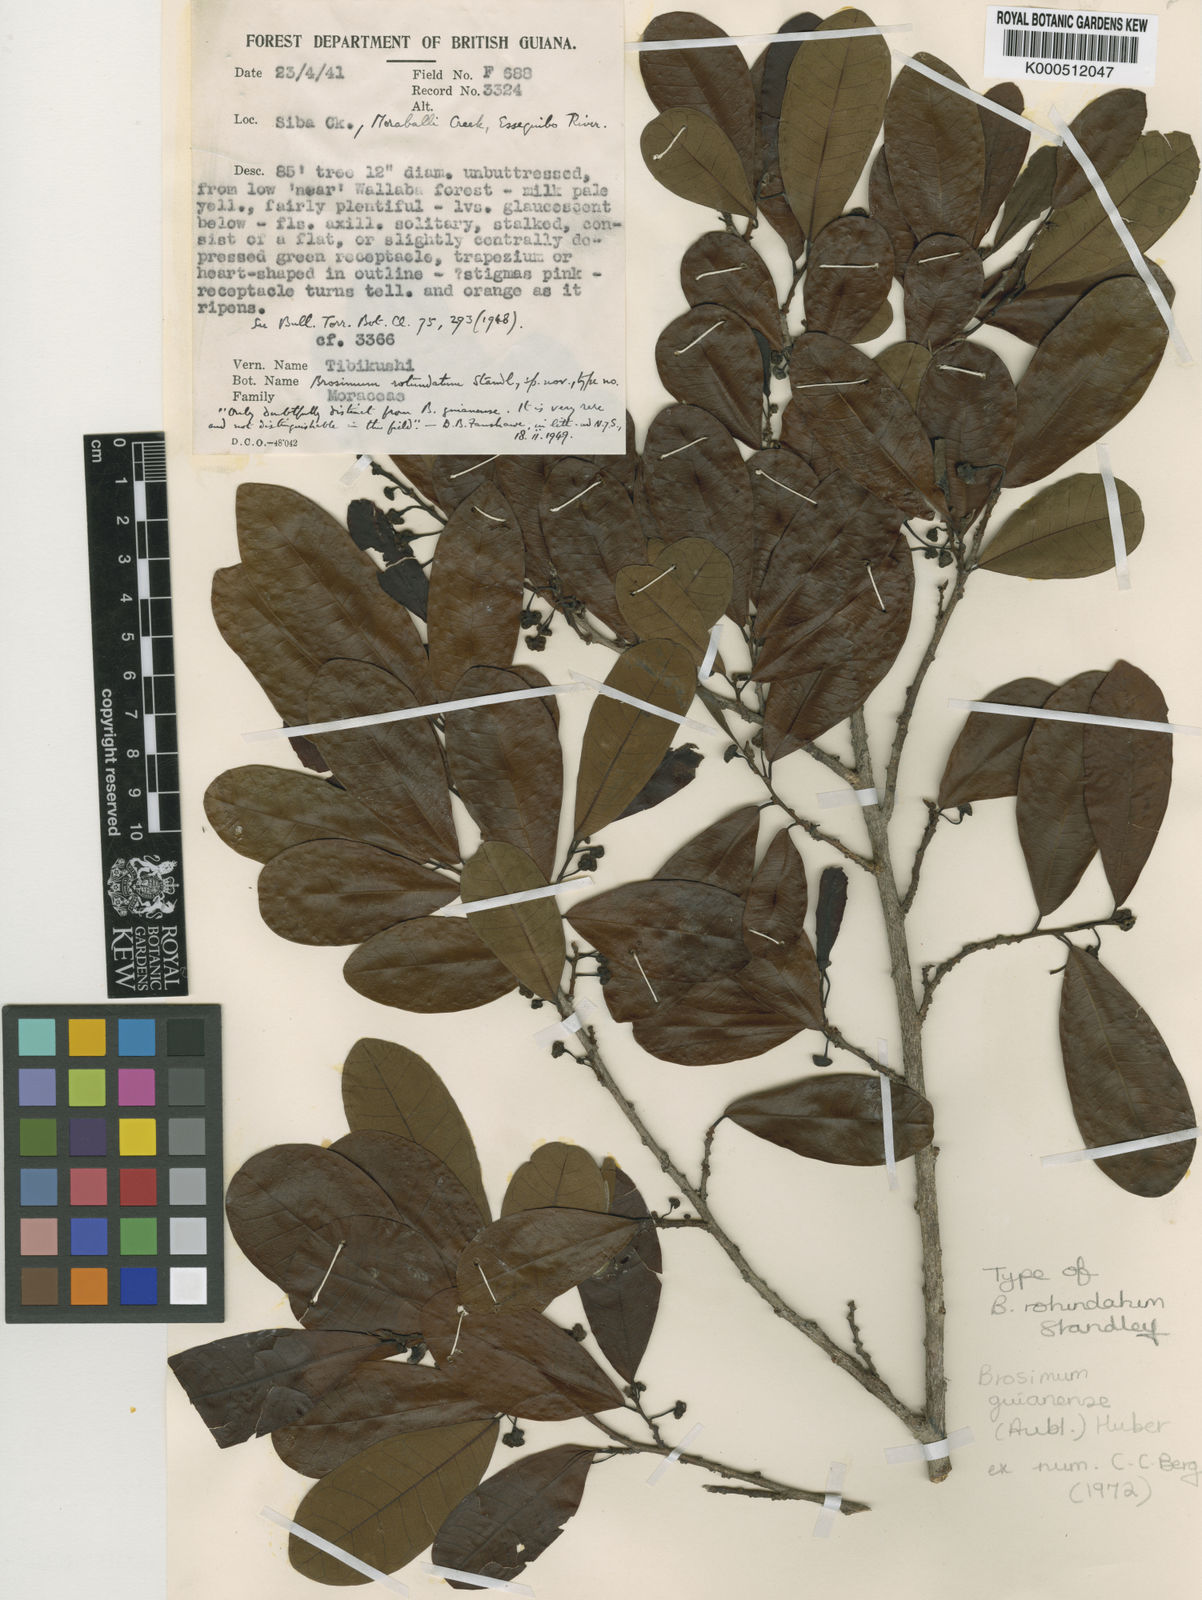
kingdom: Plantae
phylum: Tracheophyta
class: Magnoliopsida
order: Rosales
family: Moraceae
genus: Brosimum
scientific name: Brosimum
